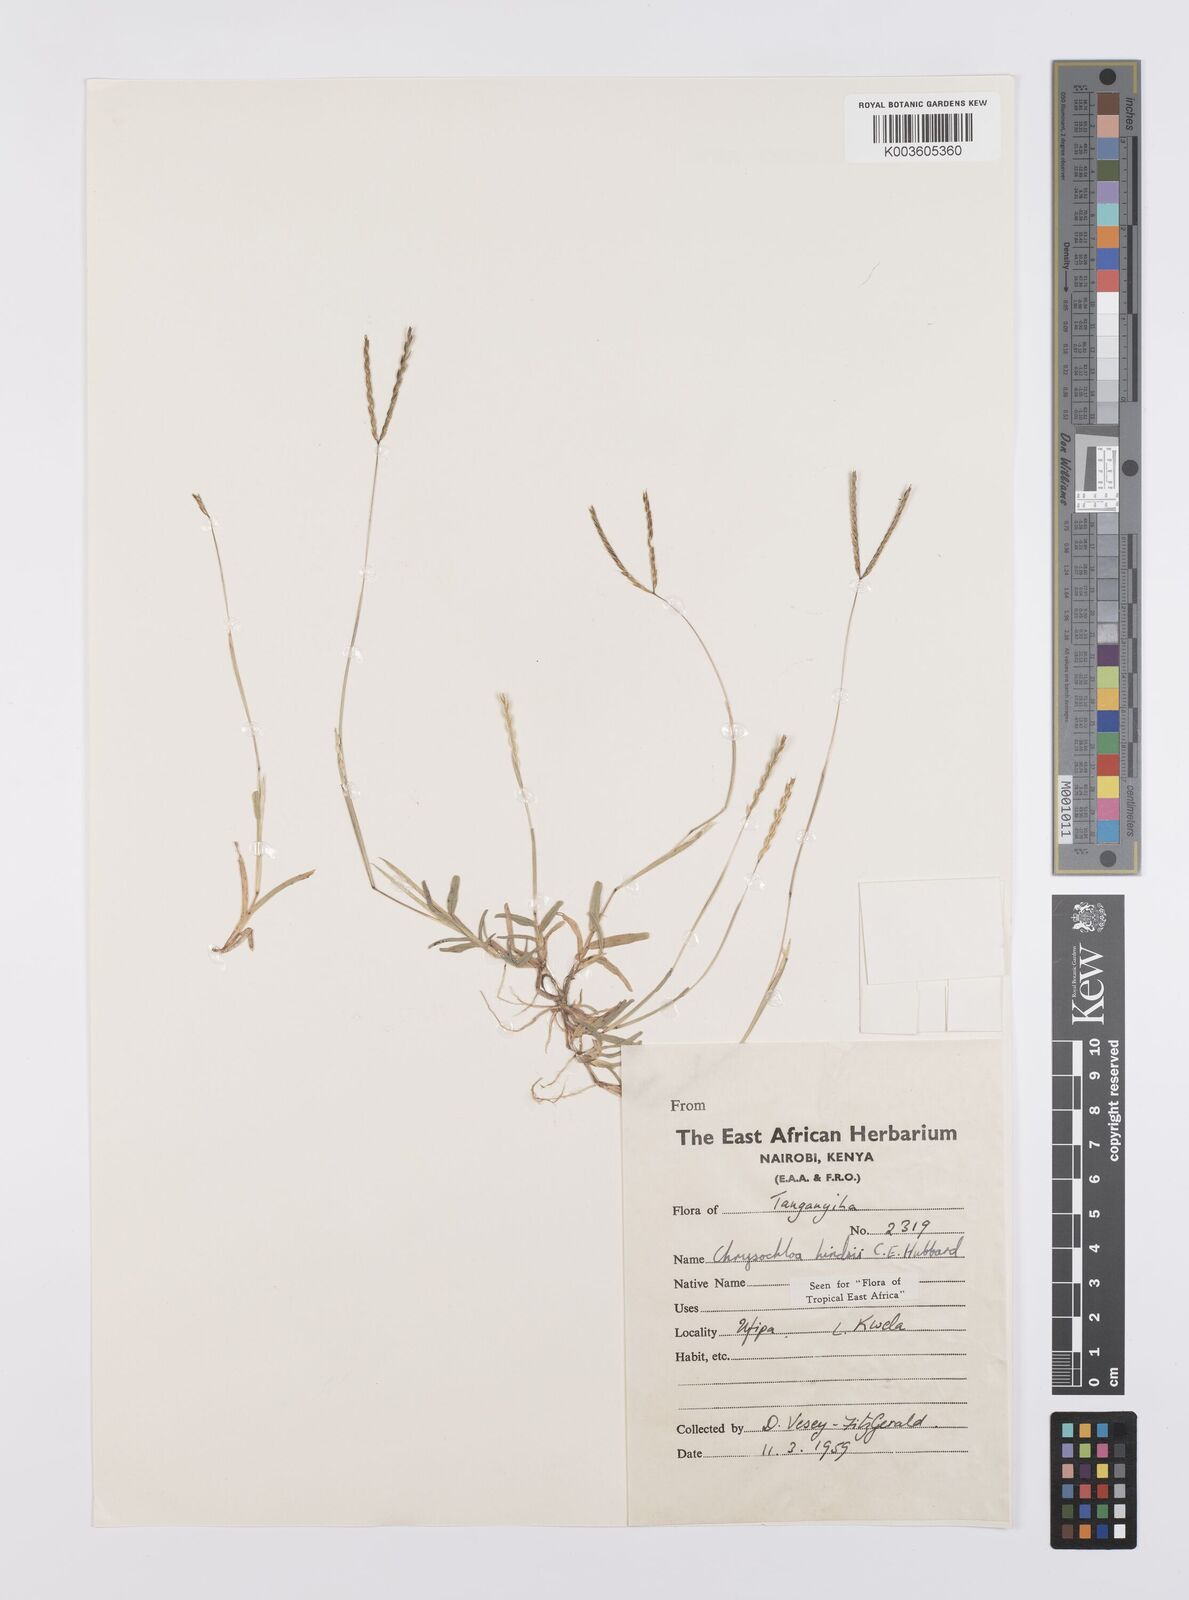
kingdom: Plantae
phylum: Tracheophyta
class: Liliopsida
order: Poales
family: Poaceae
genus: Chrysochloa
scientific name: Chrysochloa hindsii
